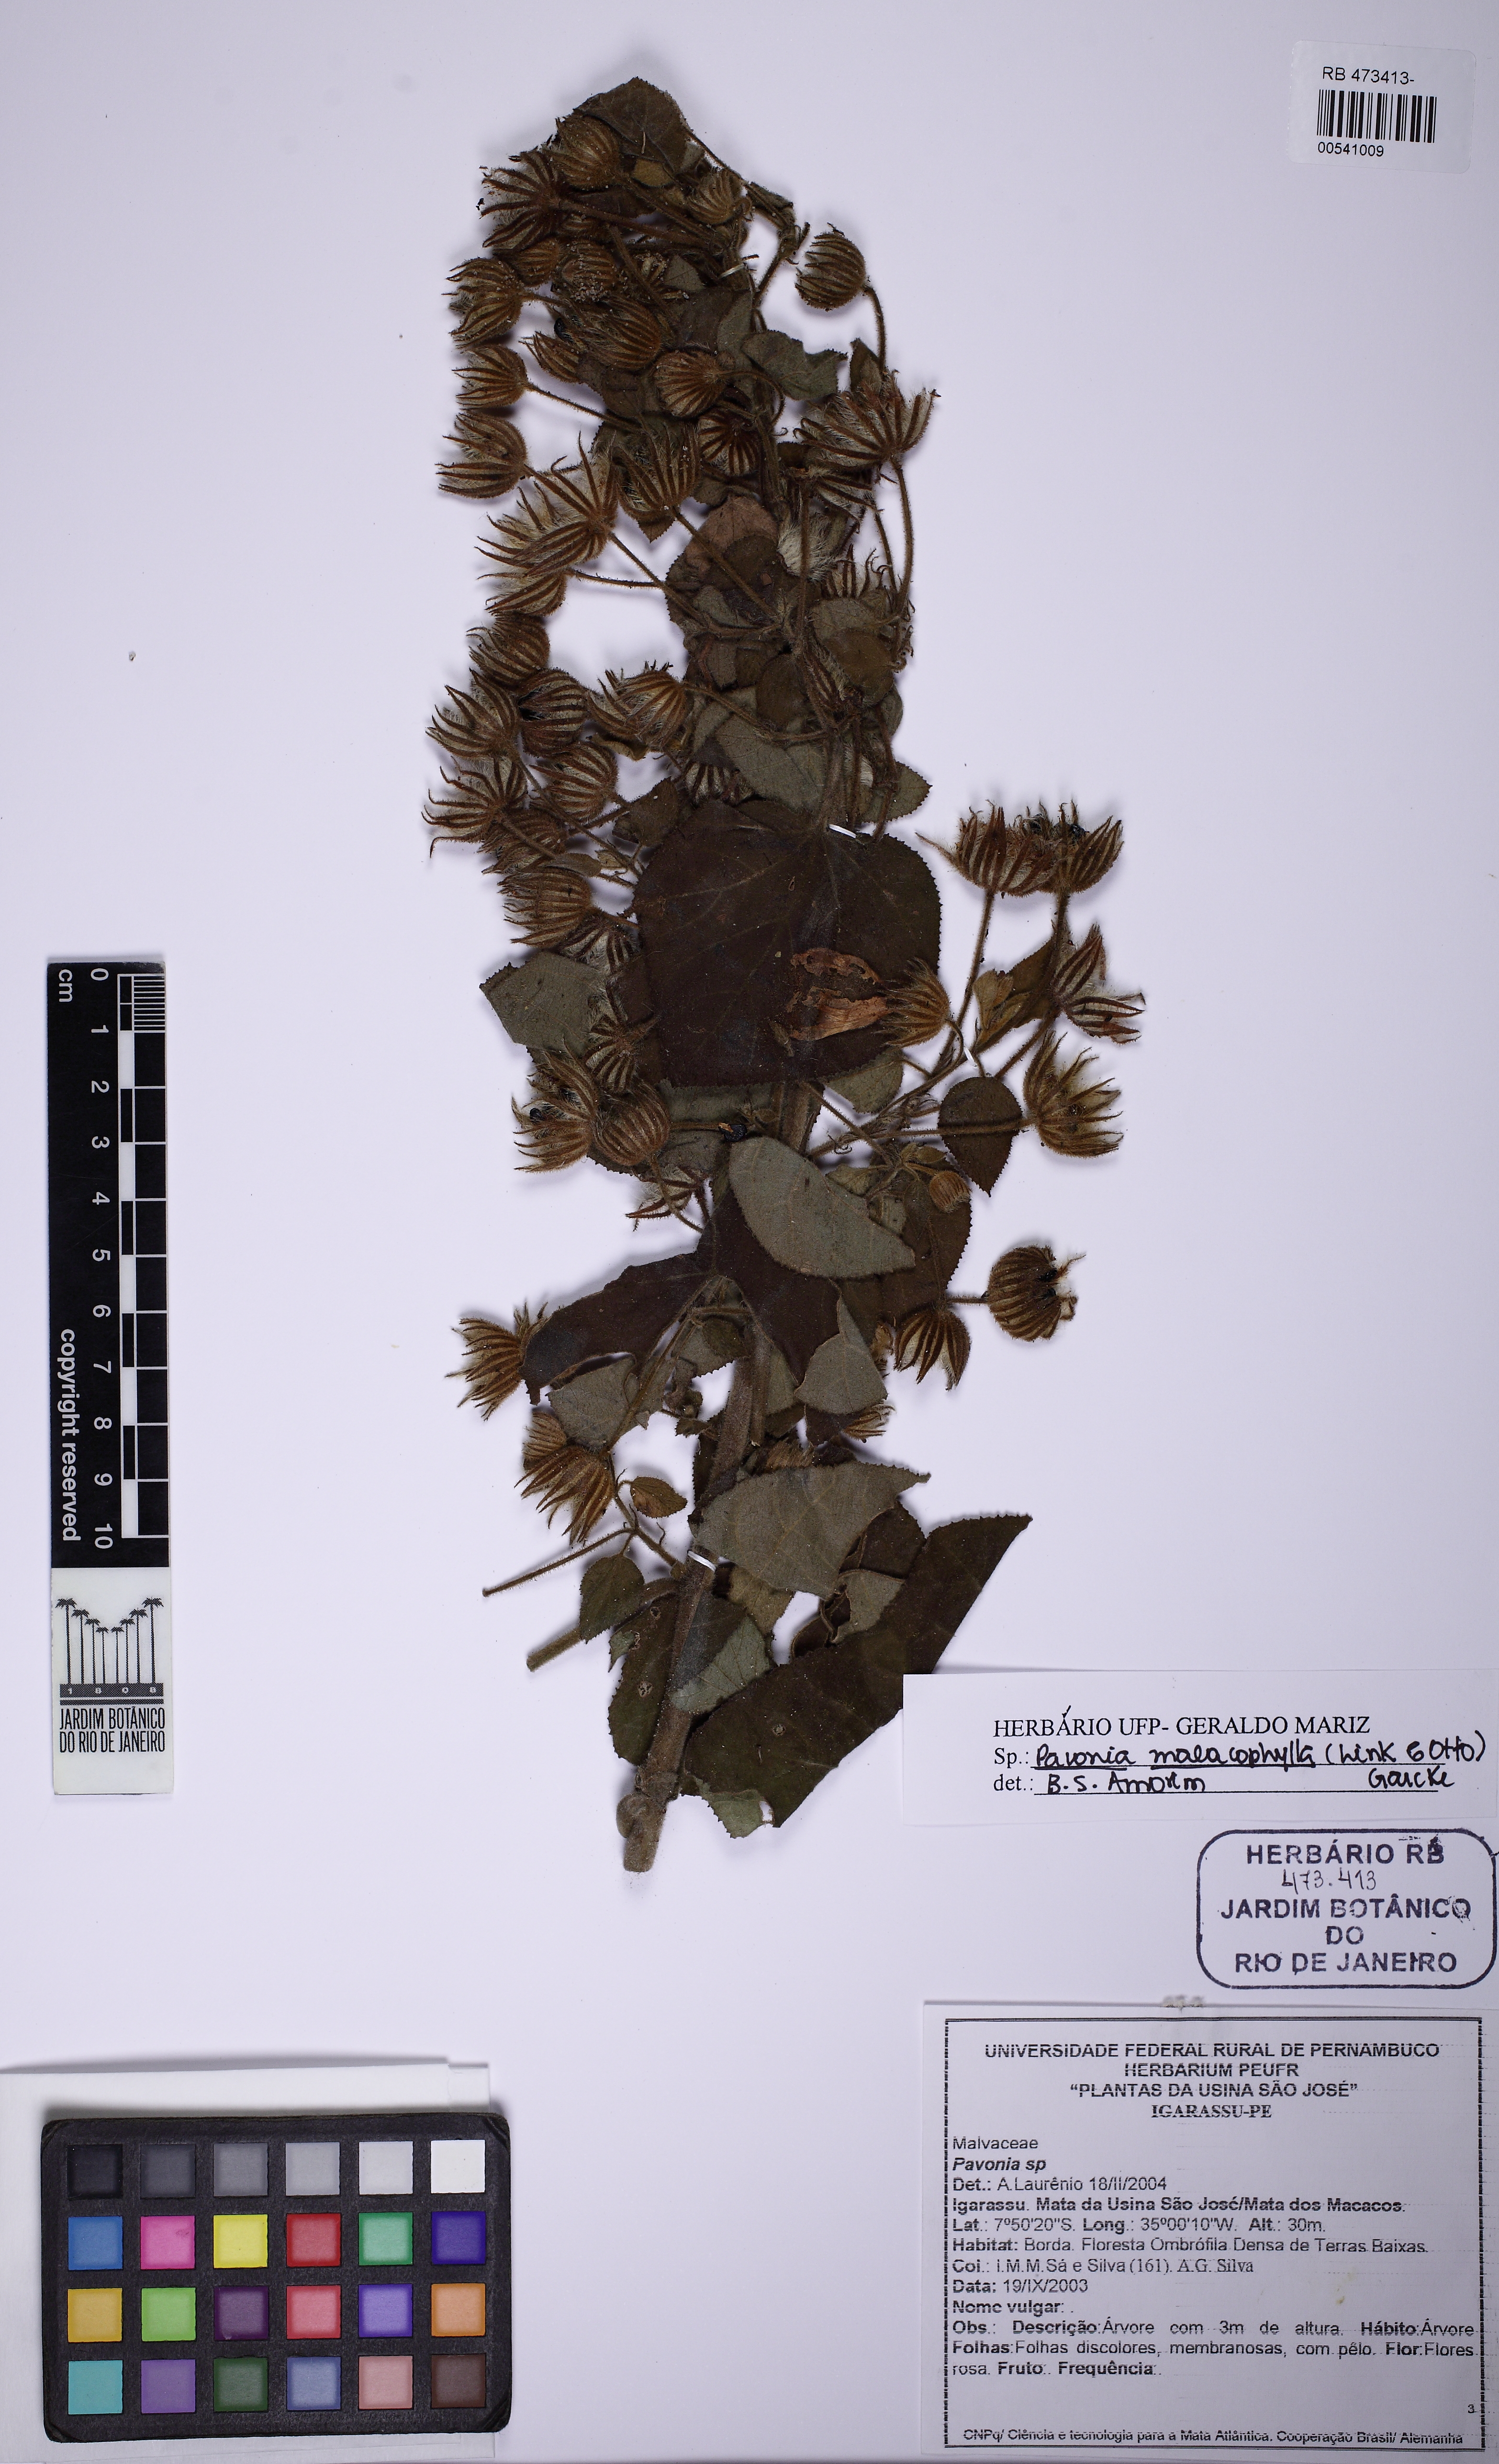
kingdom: Plantae
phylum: Tracheophyta
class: Magnoliopsida
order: Malvales
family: Malvaceae
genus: Pavonia
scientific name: Pavonia malacophylla
